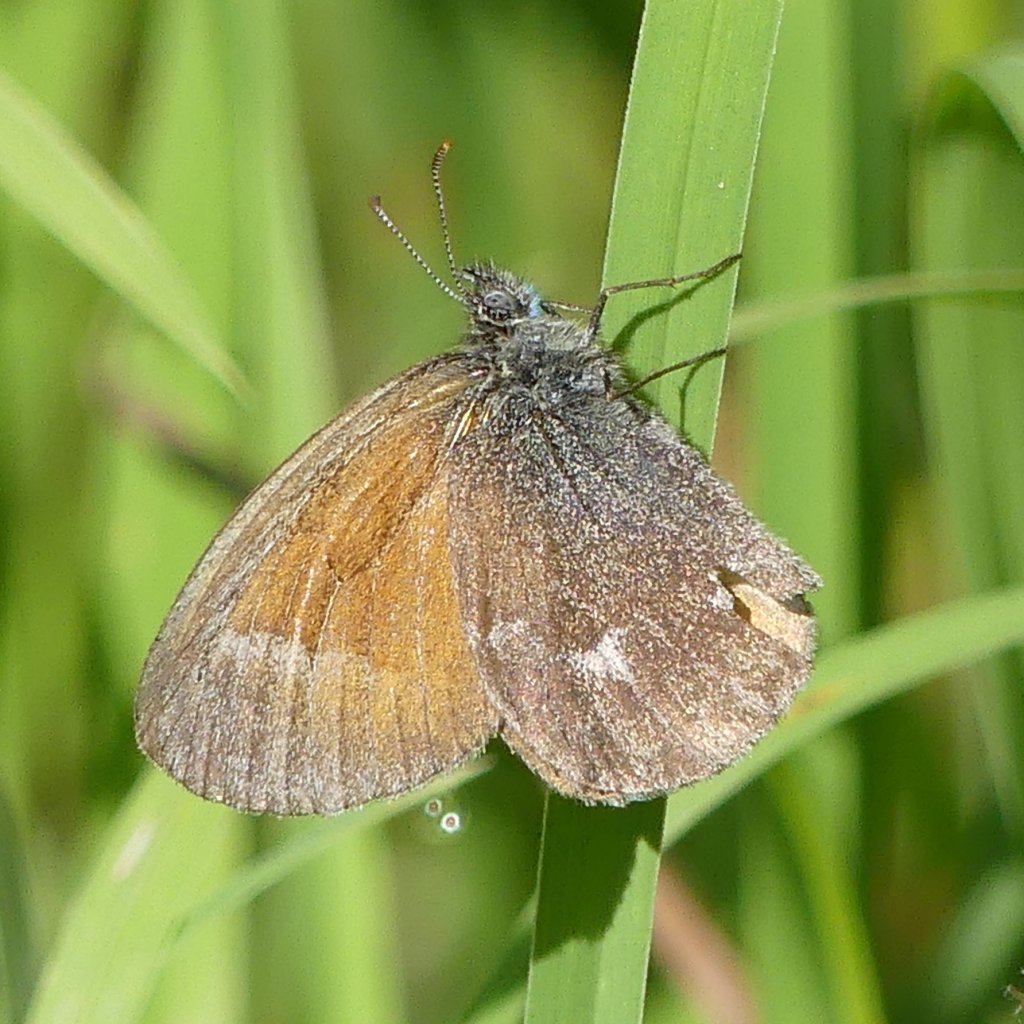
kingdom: Animalia
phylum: Arthropoda
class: Insecta
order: Lepidoptera
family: Nymphalidae
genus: Coenonympha
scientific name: Coenonympha tullia
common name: Large Heath
